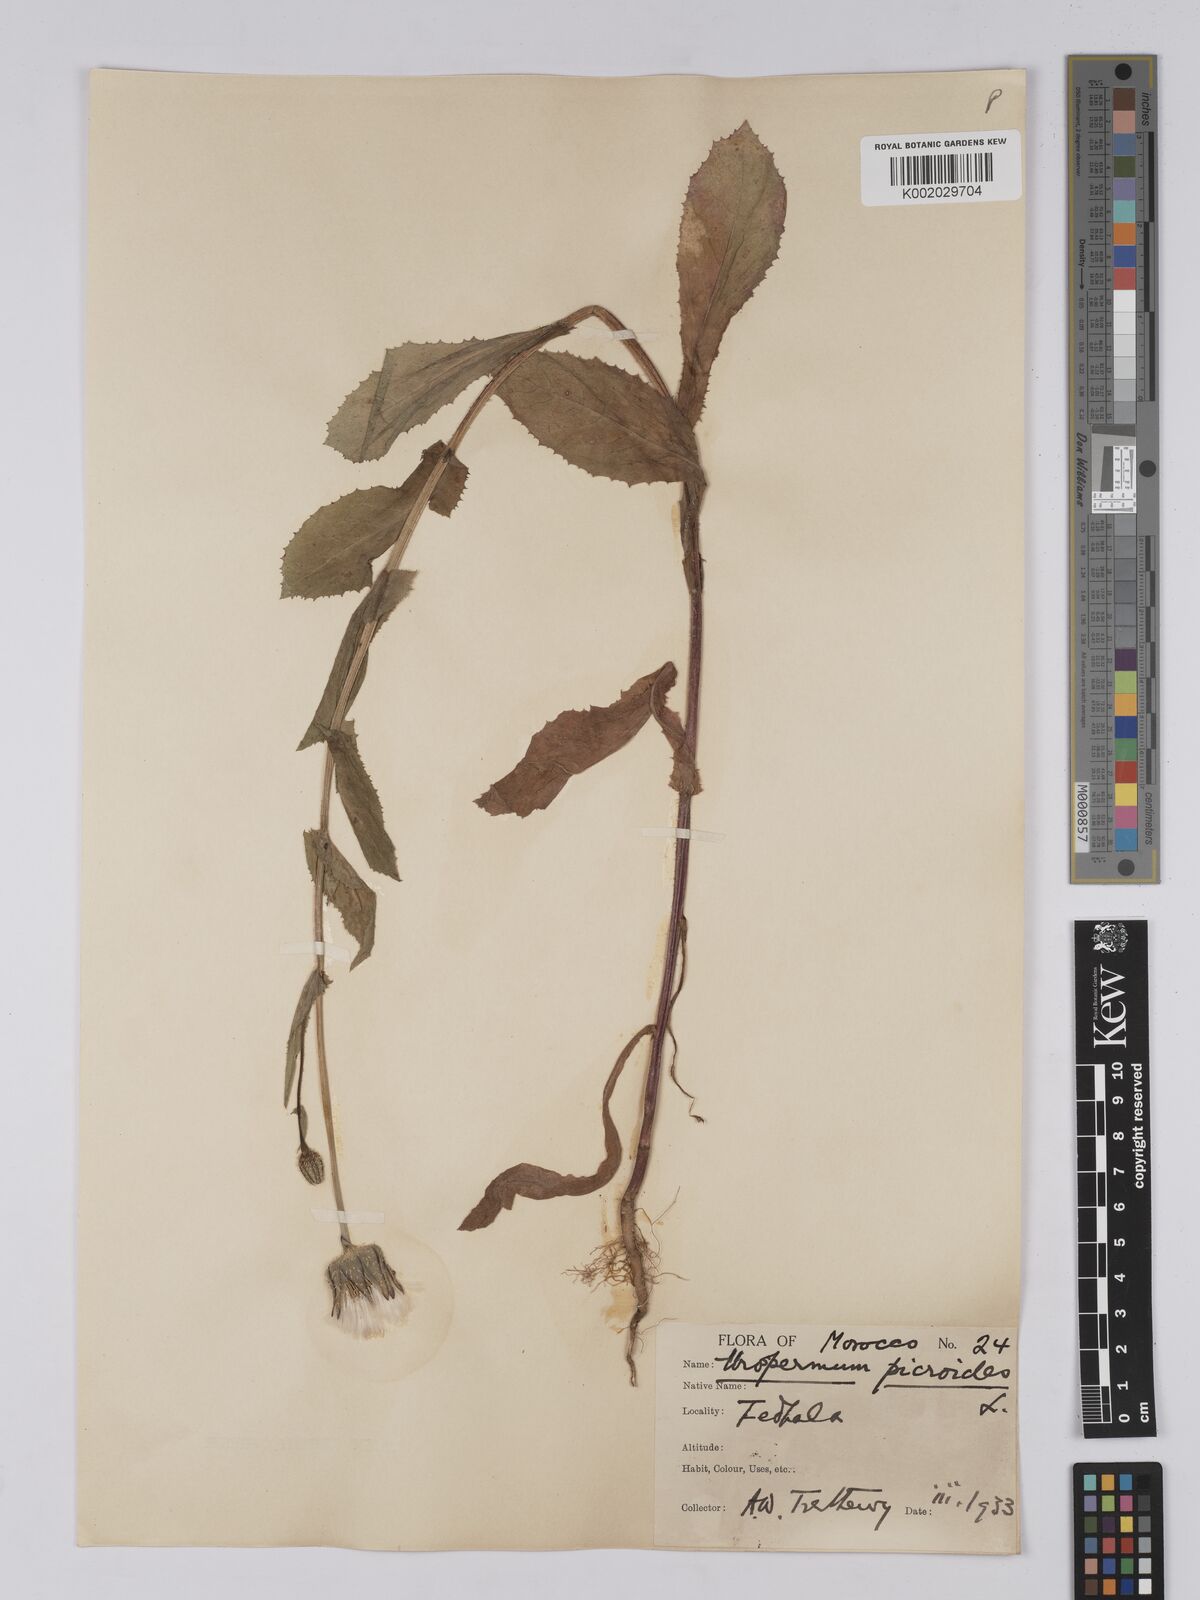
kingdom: Plantae
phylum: Tracheophyta
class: Magnoliopsida
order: Asterales
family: Asteraceae
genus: Urospermum
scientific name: Urospermum picroides
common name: False hawkbit
